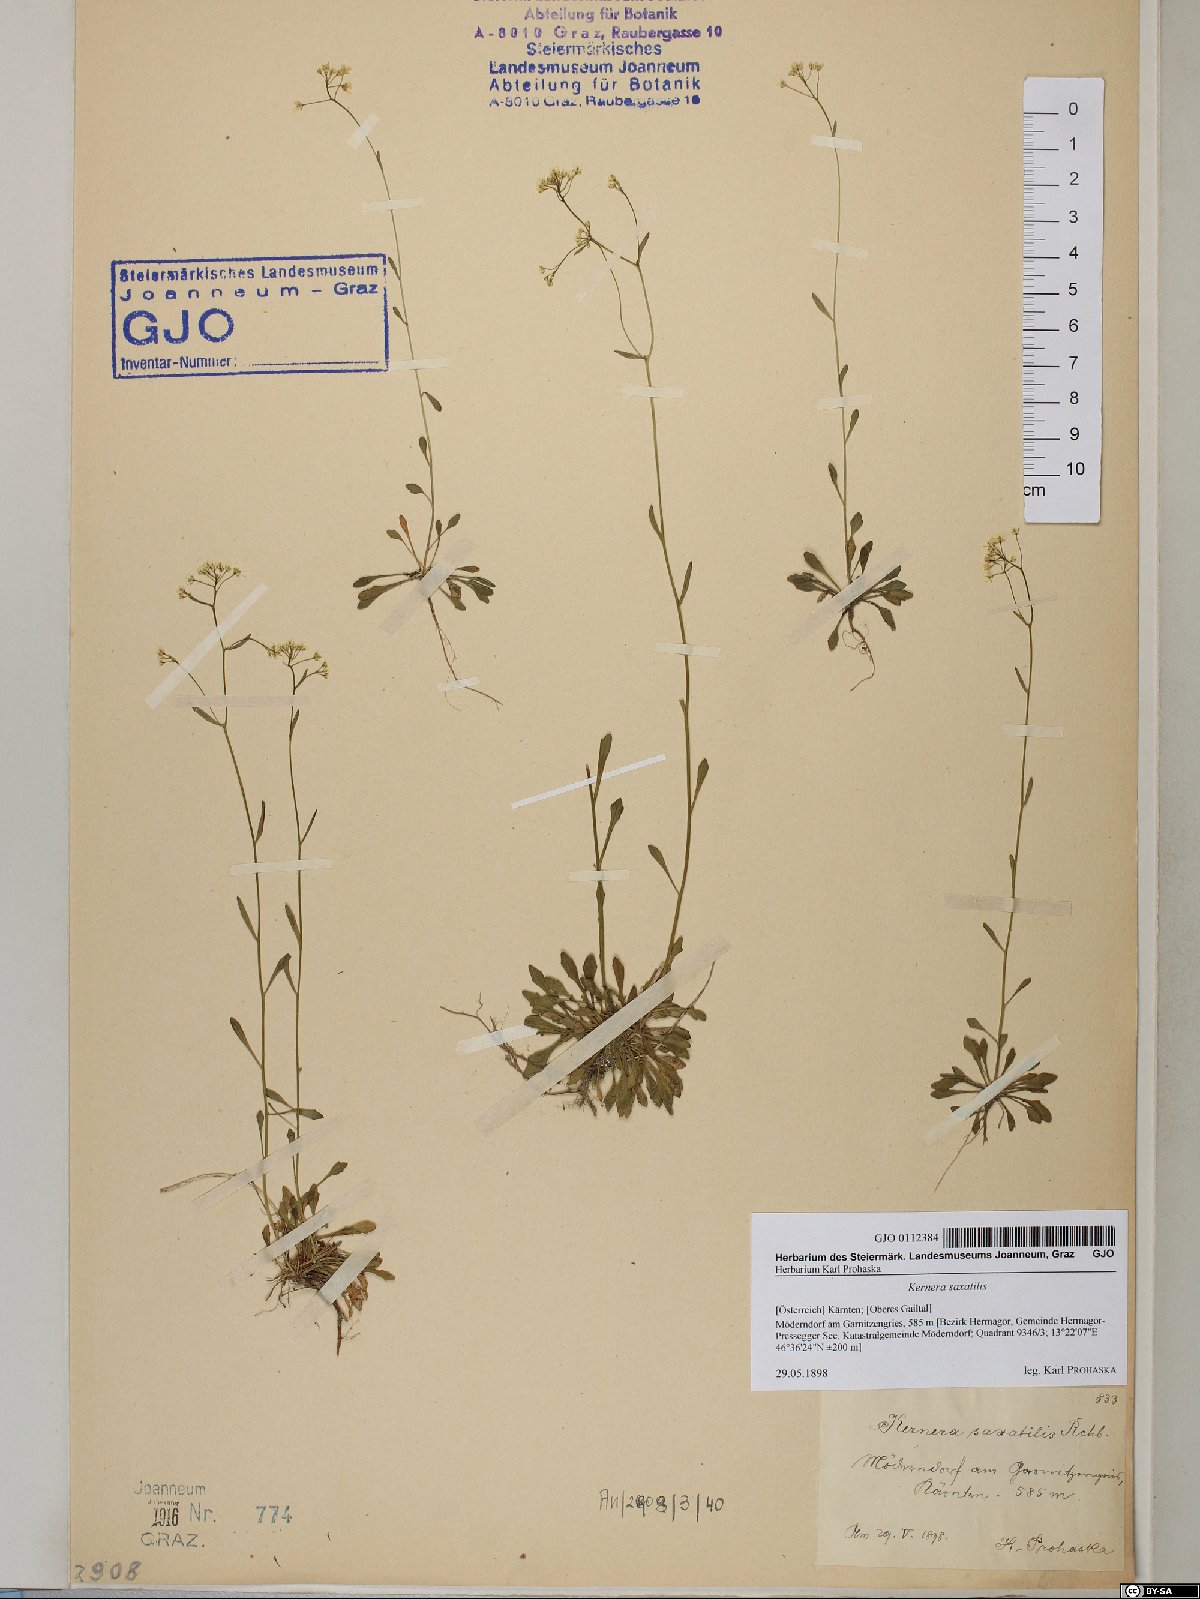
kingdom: Plantae
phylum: Tracheophyta
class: Magnoliopsida
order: Brassicales
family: Brassicaceae
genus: Kernera
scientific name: Kernera saxatilis
